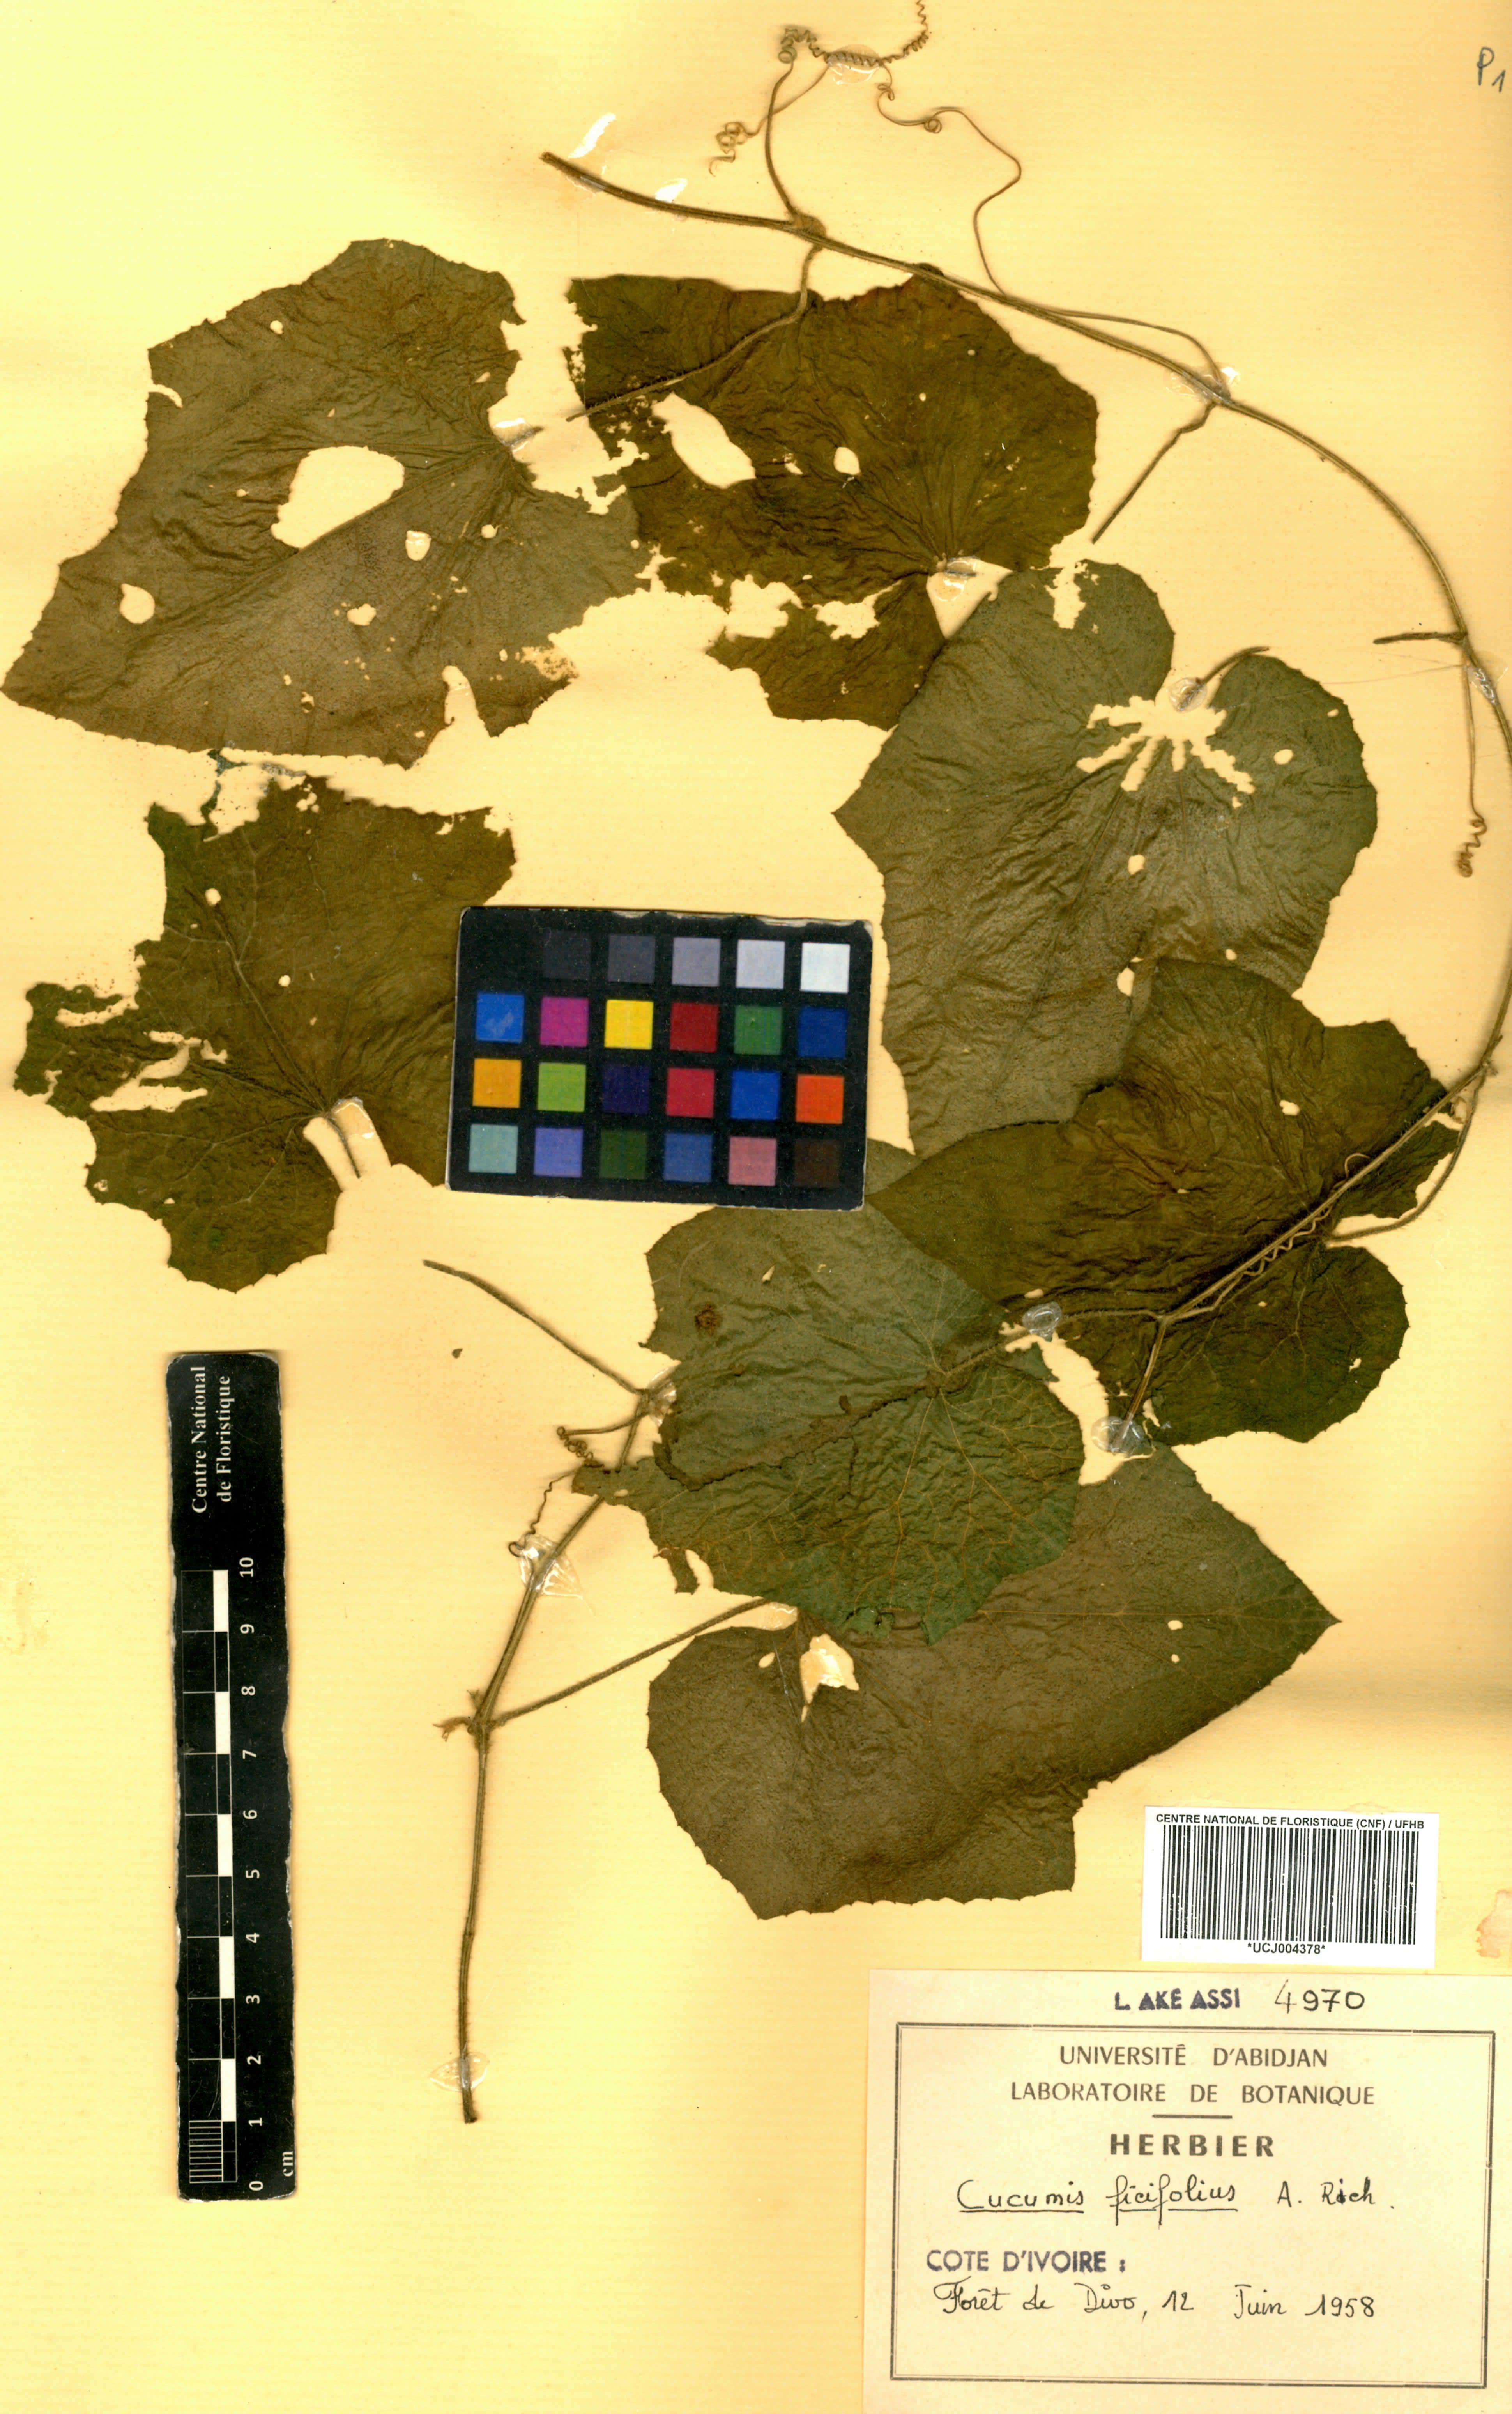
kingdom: Plantae
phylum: Tracheophyta
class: Magnoliopsida
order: Cucurbitales
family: Cucurbitaceae
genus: Cucumis
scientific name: Cucumis ficifolius
